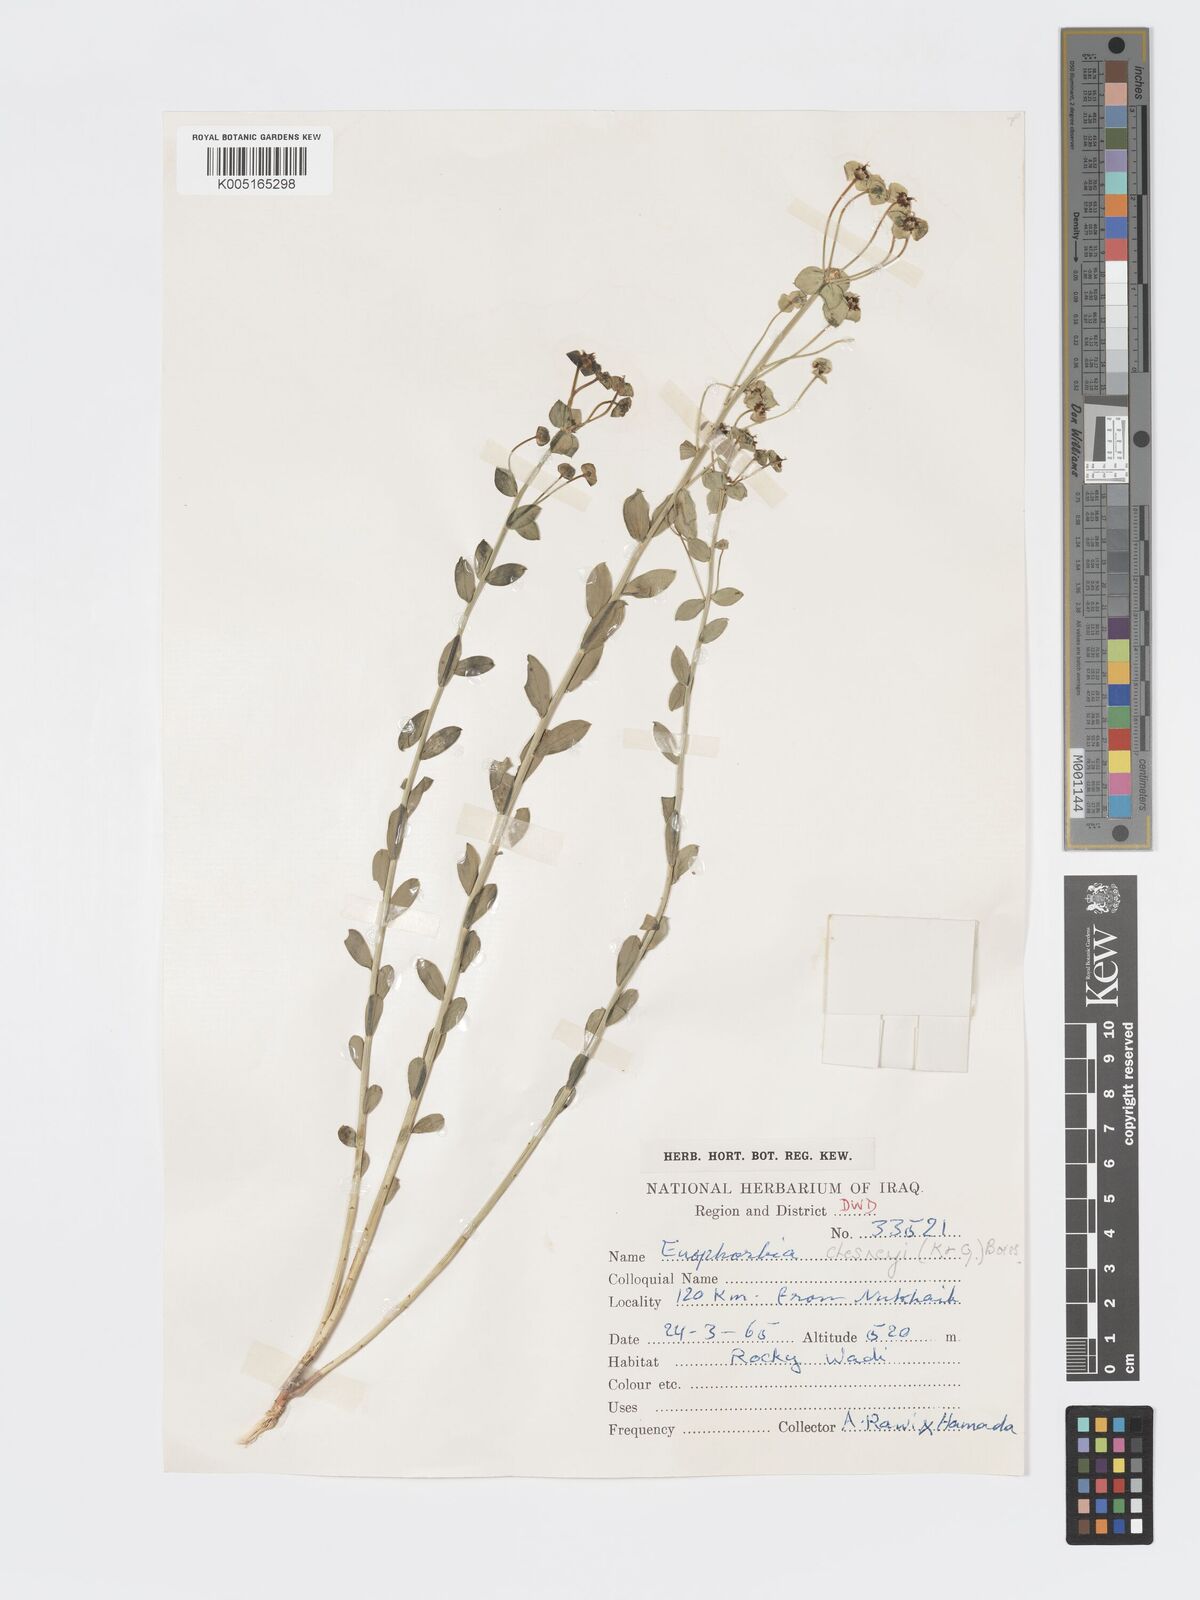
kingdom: Plantae
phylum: Tracheophyta
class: Magnoliopsida
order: Malpighiales
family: Euphorbiaceae
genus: Euphorbia
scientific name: Euphorbia
